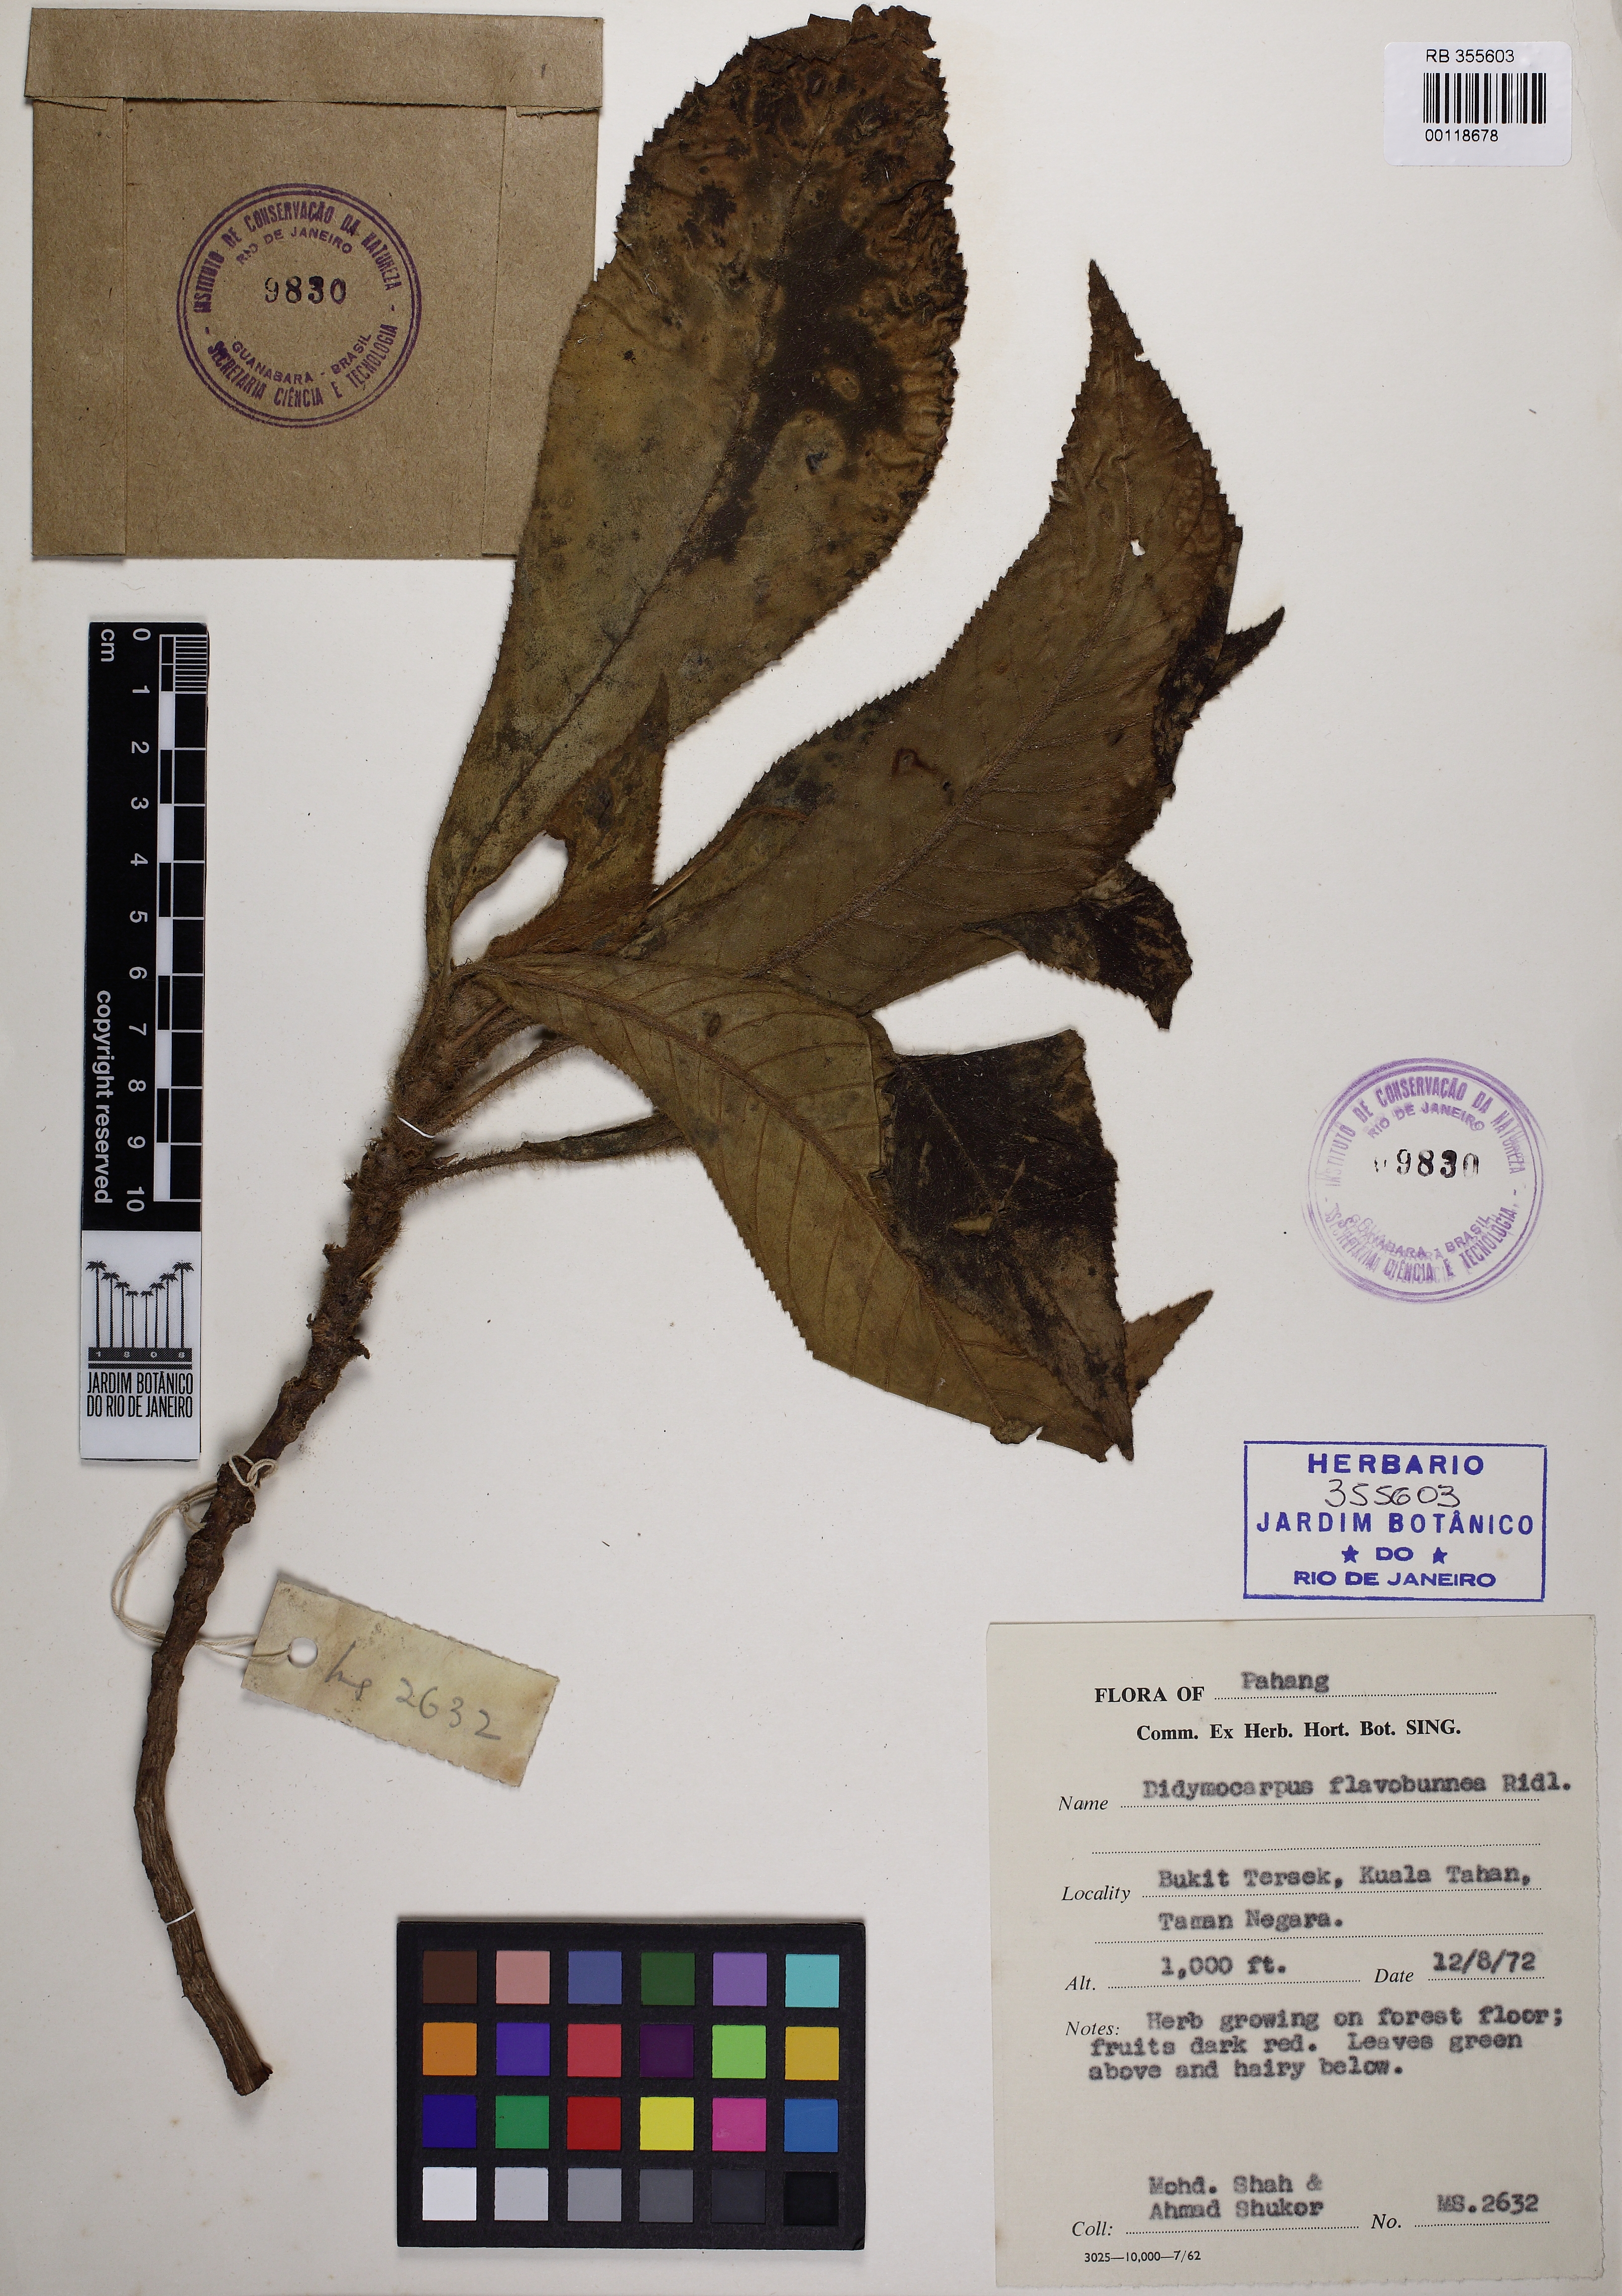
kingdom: Plantae
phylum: Tracheophyta
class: Magnoliopsida
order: Lamiales
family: Gesneriaceae
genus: Codonoboea
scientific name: Codonoboea flavobrunnea
